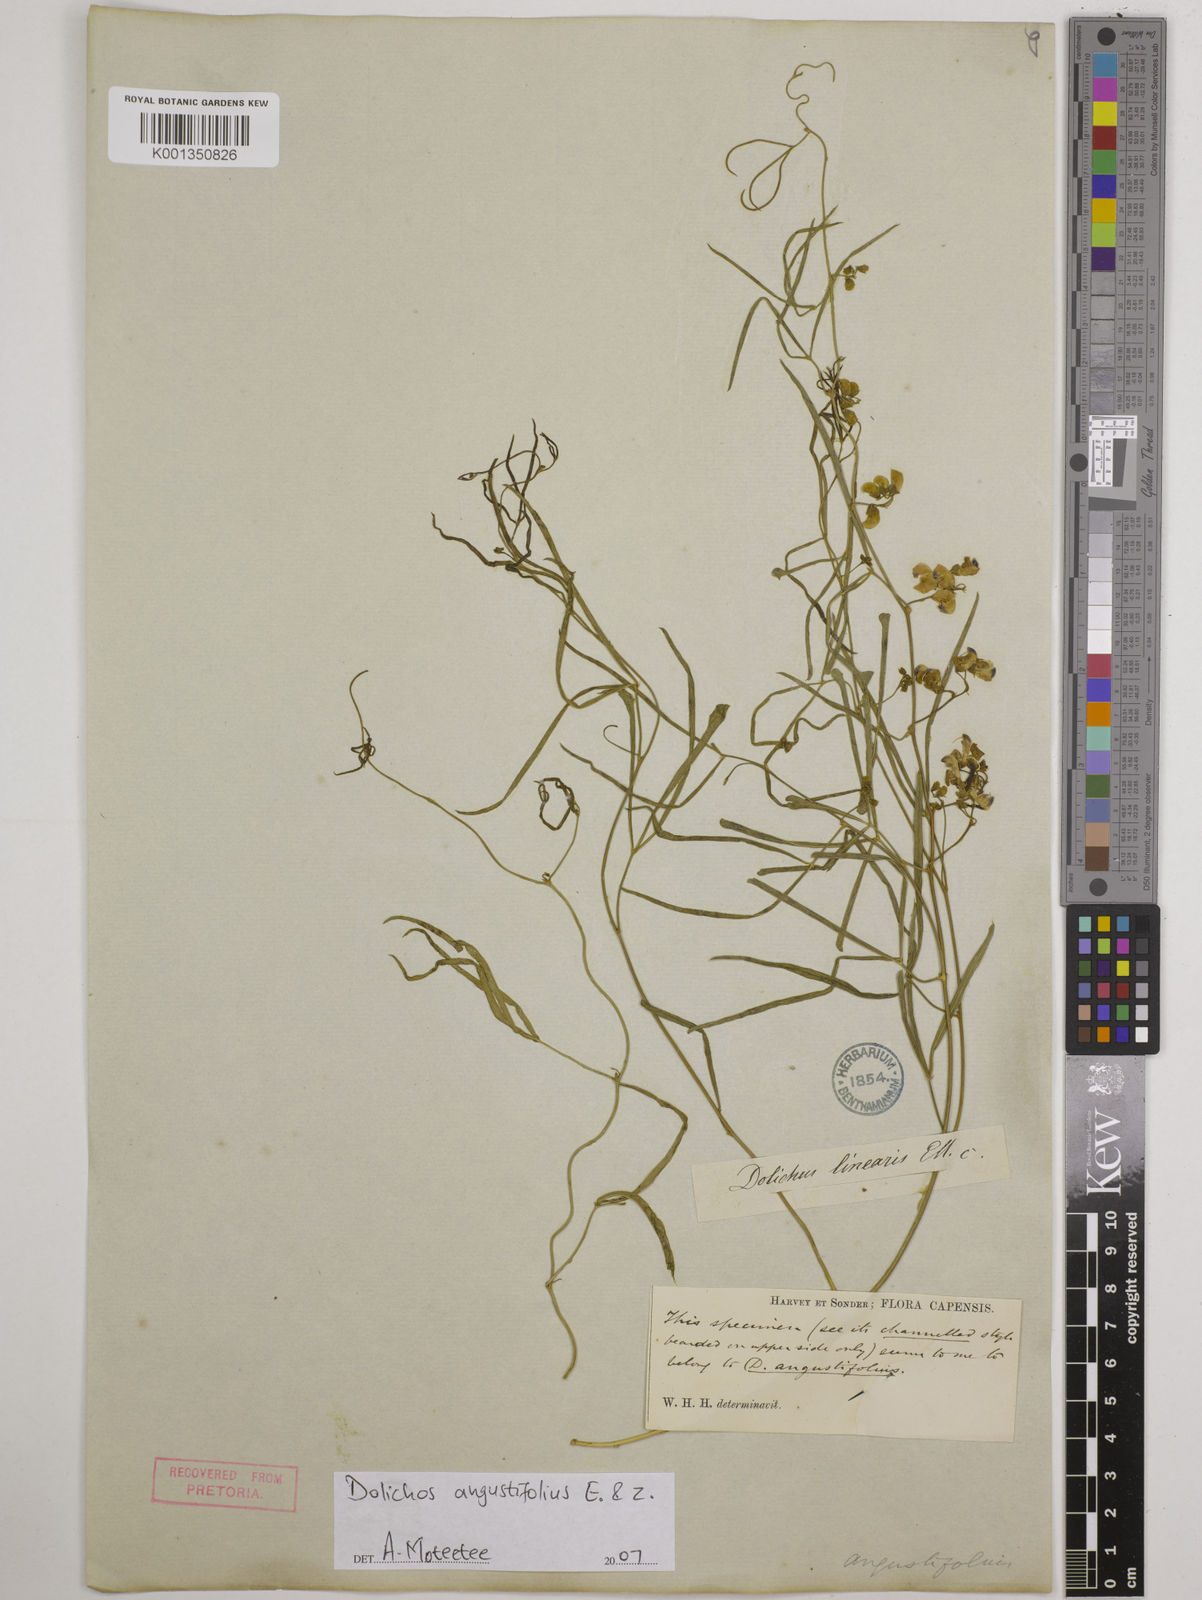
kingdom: Plantae
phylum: Tracheophyta
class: Magnoliopsida
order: Fabales
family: Fabaceae
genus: Dolichos
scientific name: Dolichos
